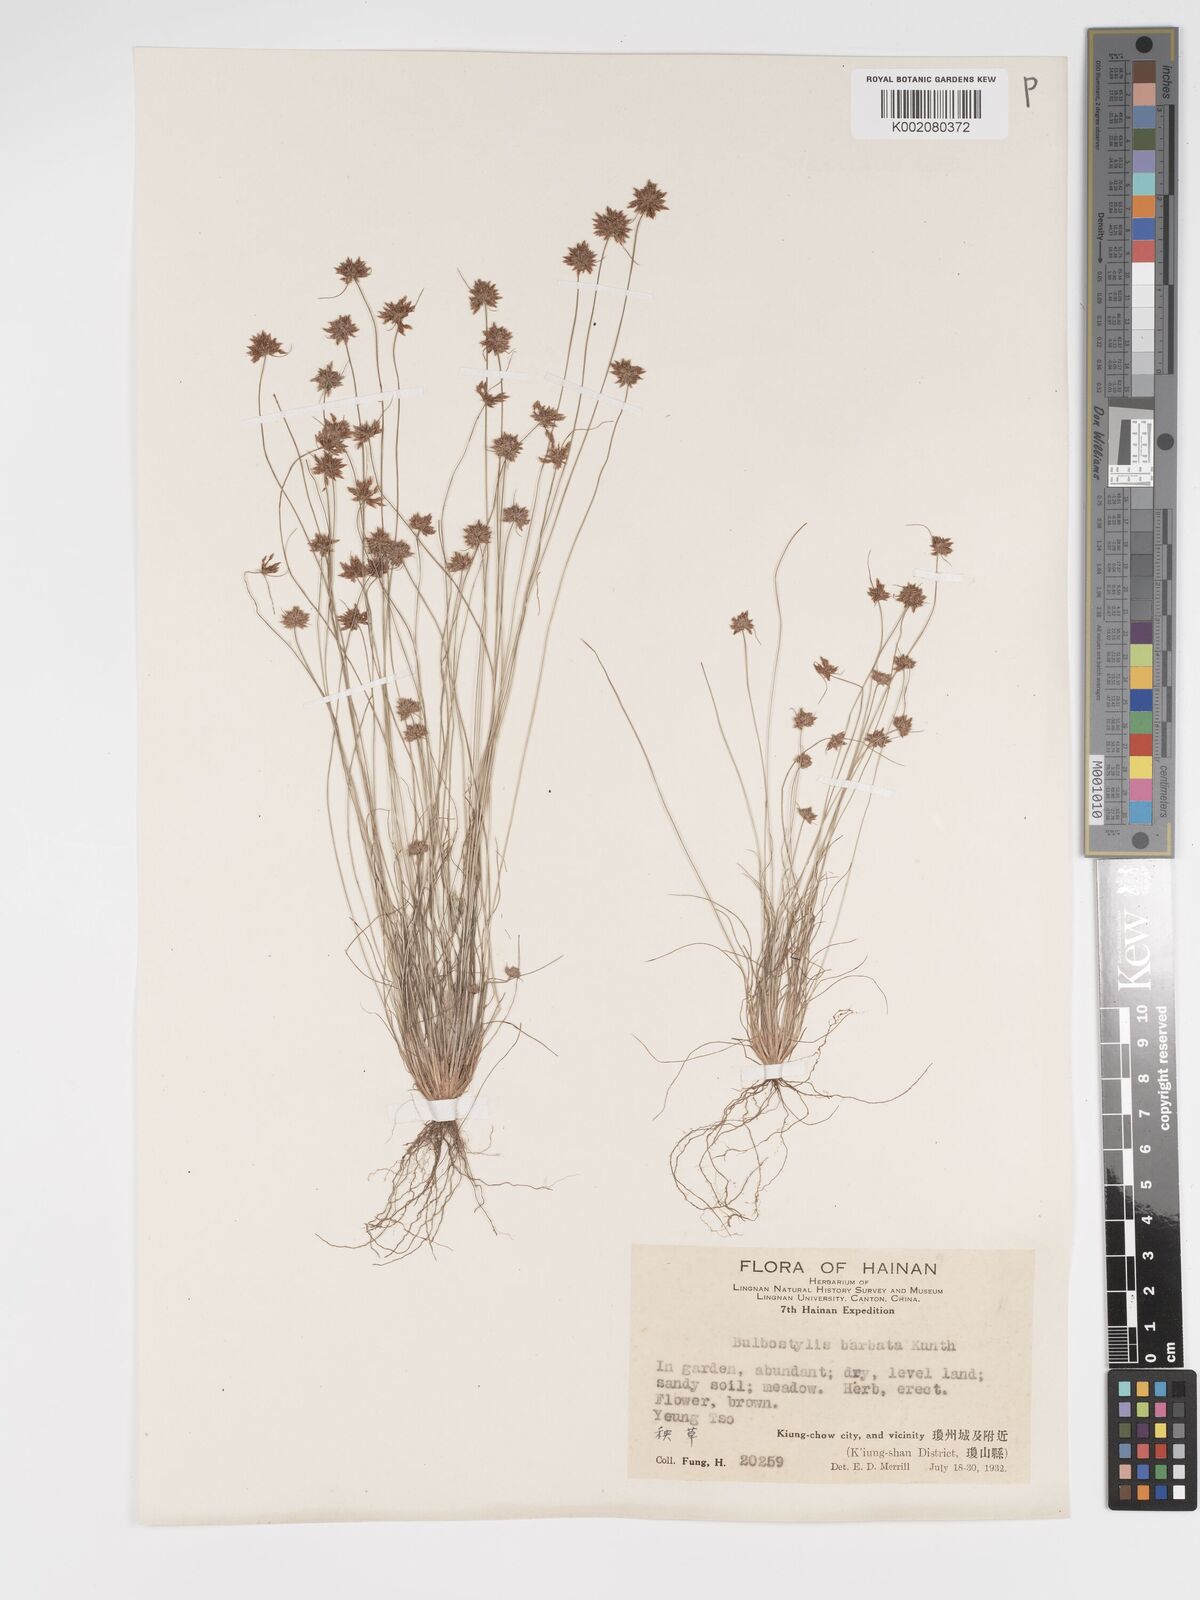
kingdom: Plantae
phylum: Tracheophyta
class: Liliopsida
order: Poales
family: Cyperaceae
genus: Bulbostylis
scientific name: Bulbostylis barbata
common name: Watergrass
